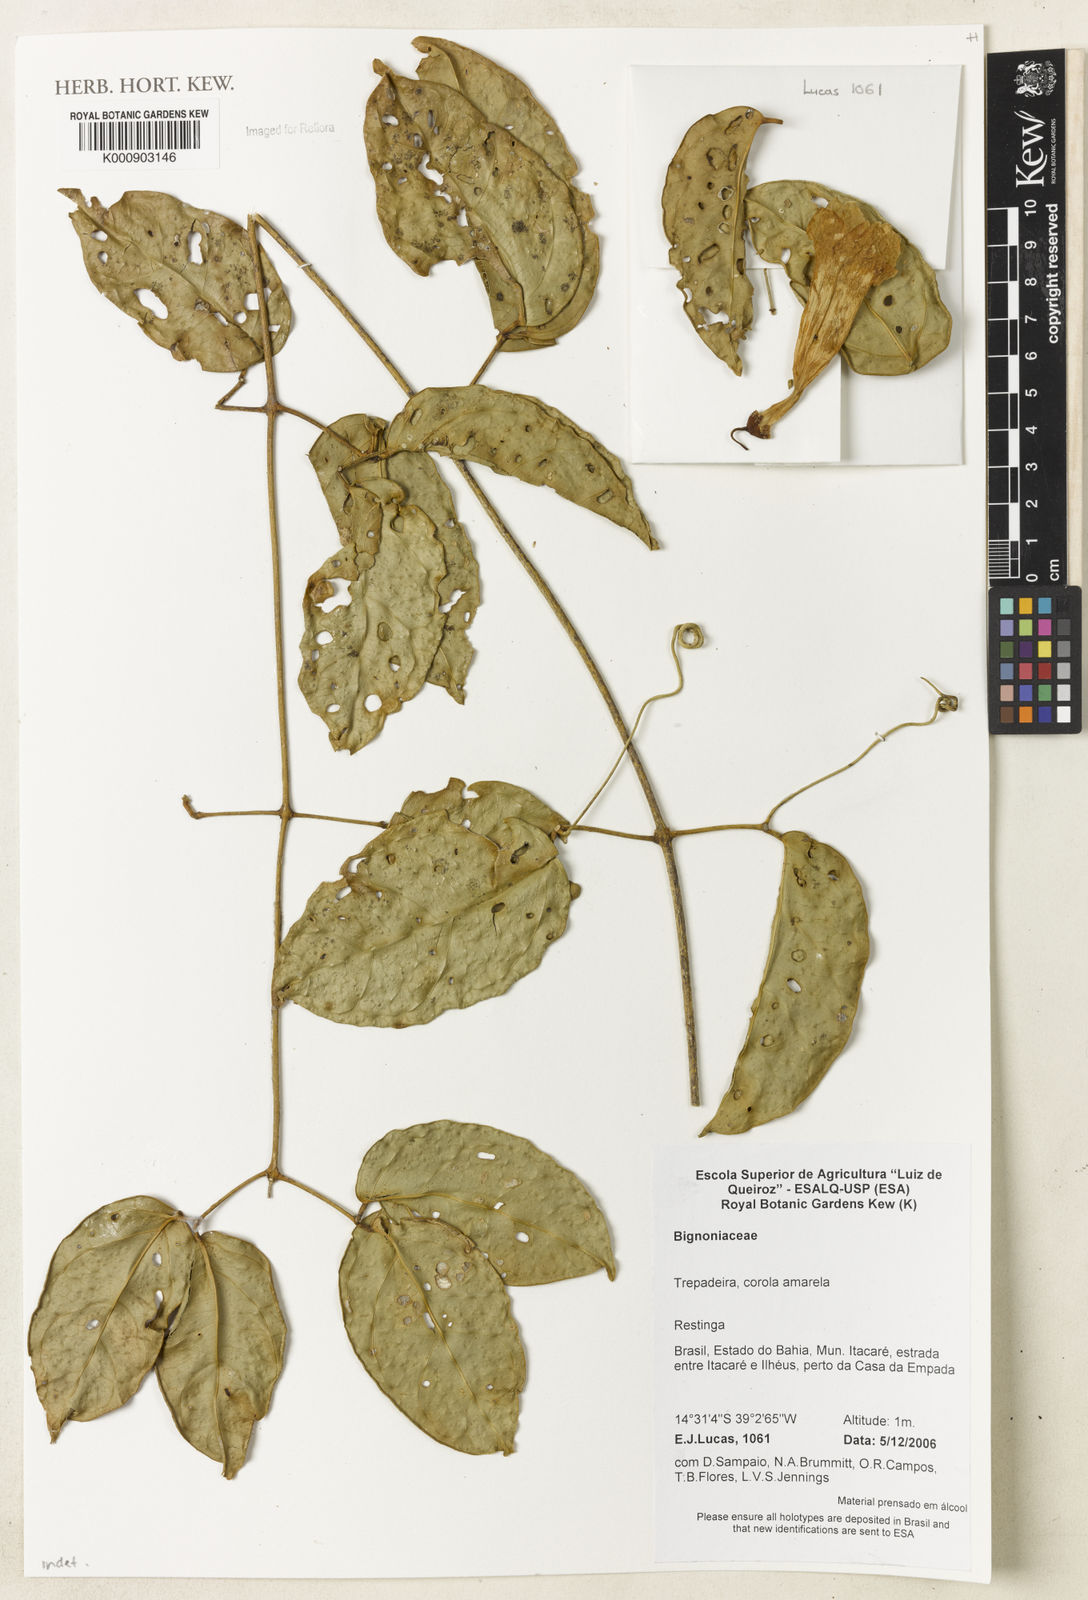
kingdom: Plantae
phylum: Tracheophyta
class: Magnoliopsida
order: Lamiales
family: Bignoniaceae
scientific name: Bignoniaceae
